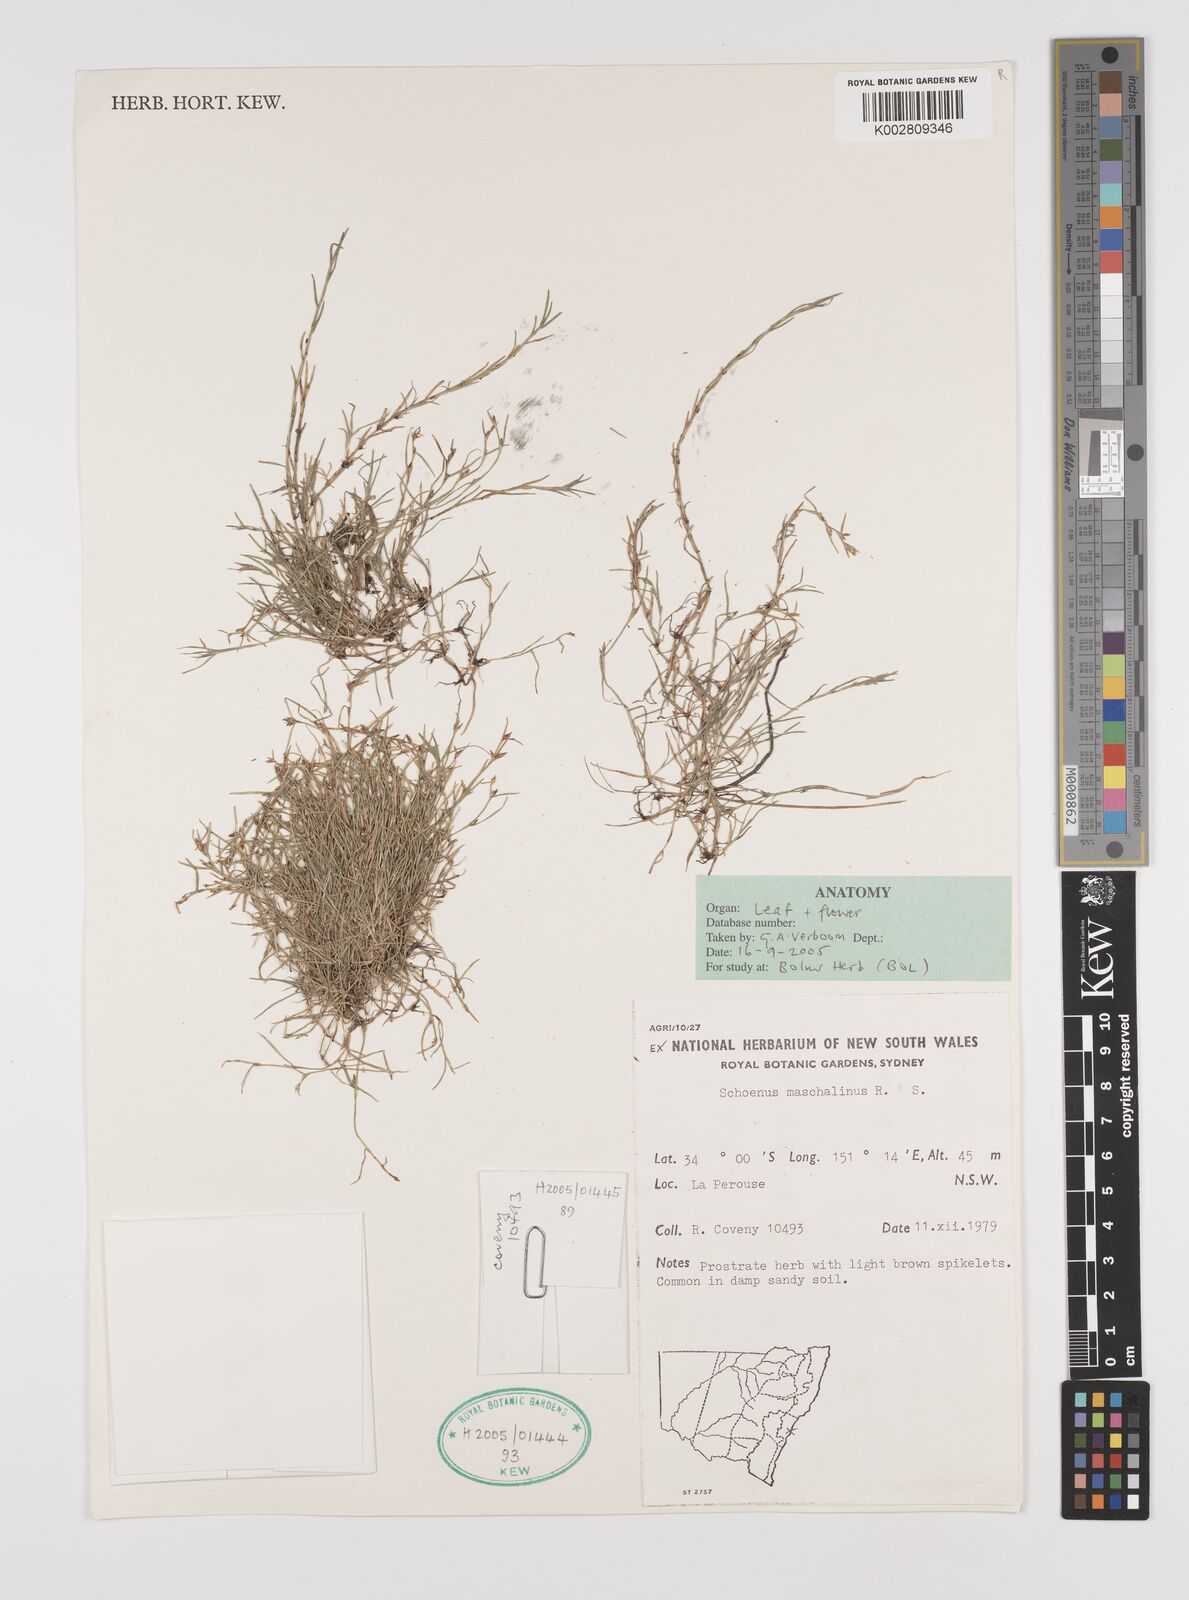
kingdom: Plantae
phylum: Tracheophyta
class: Liliopsida
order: Poales
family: Cyperaceae
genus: Schoenus
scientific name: Schoenus maschalinus
